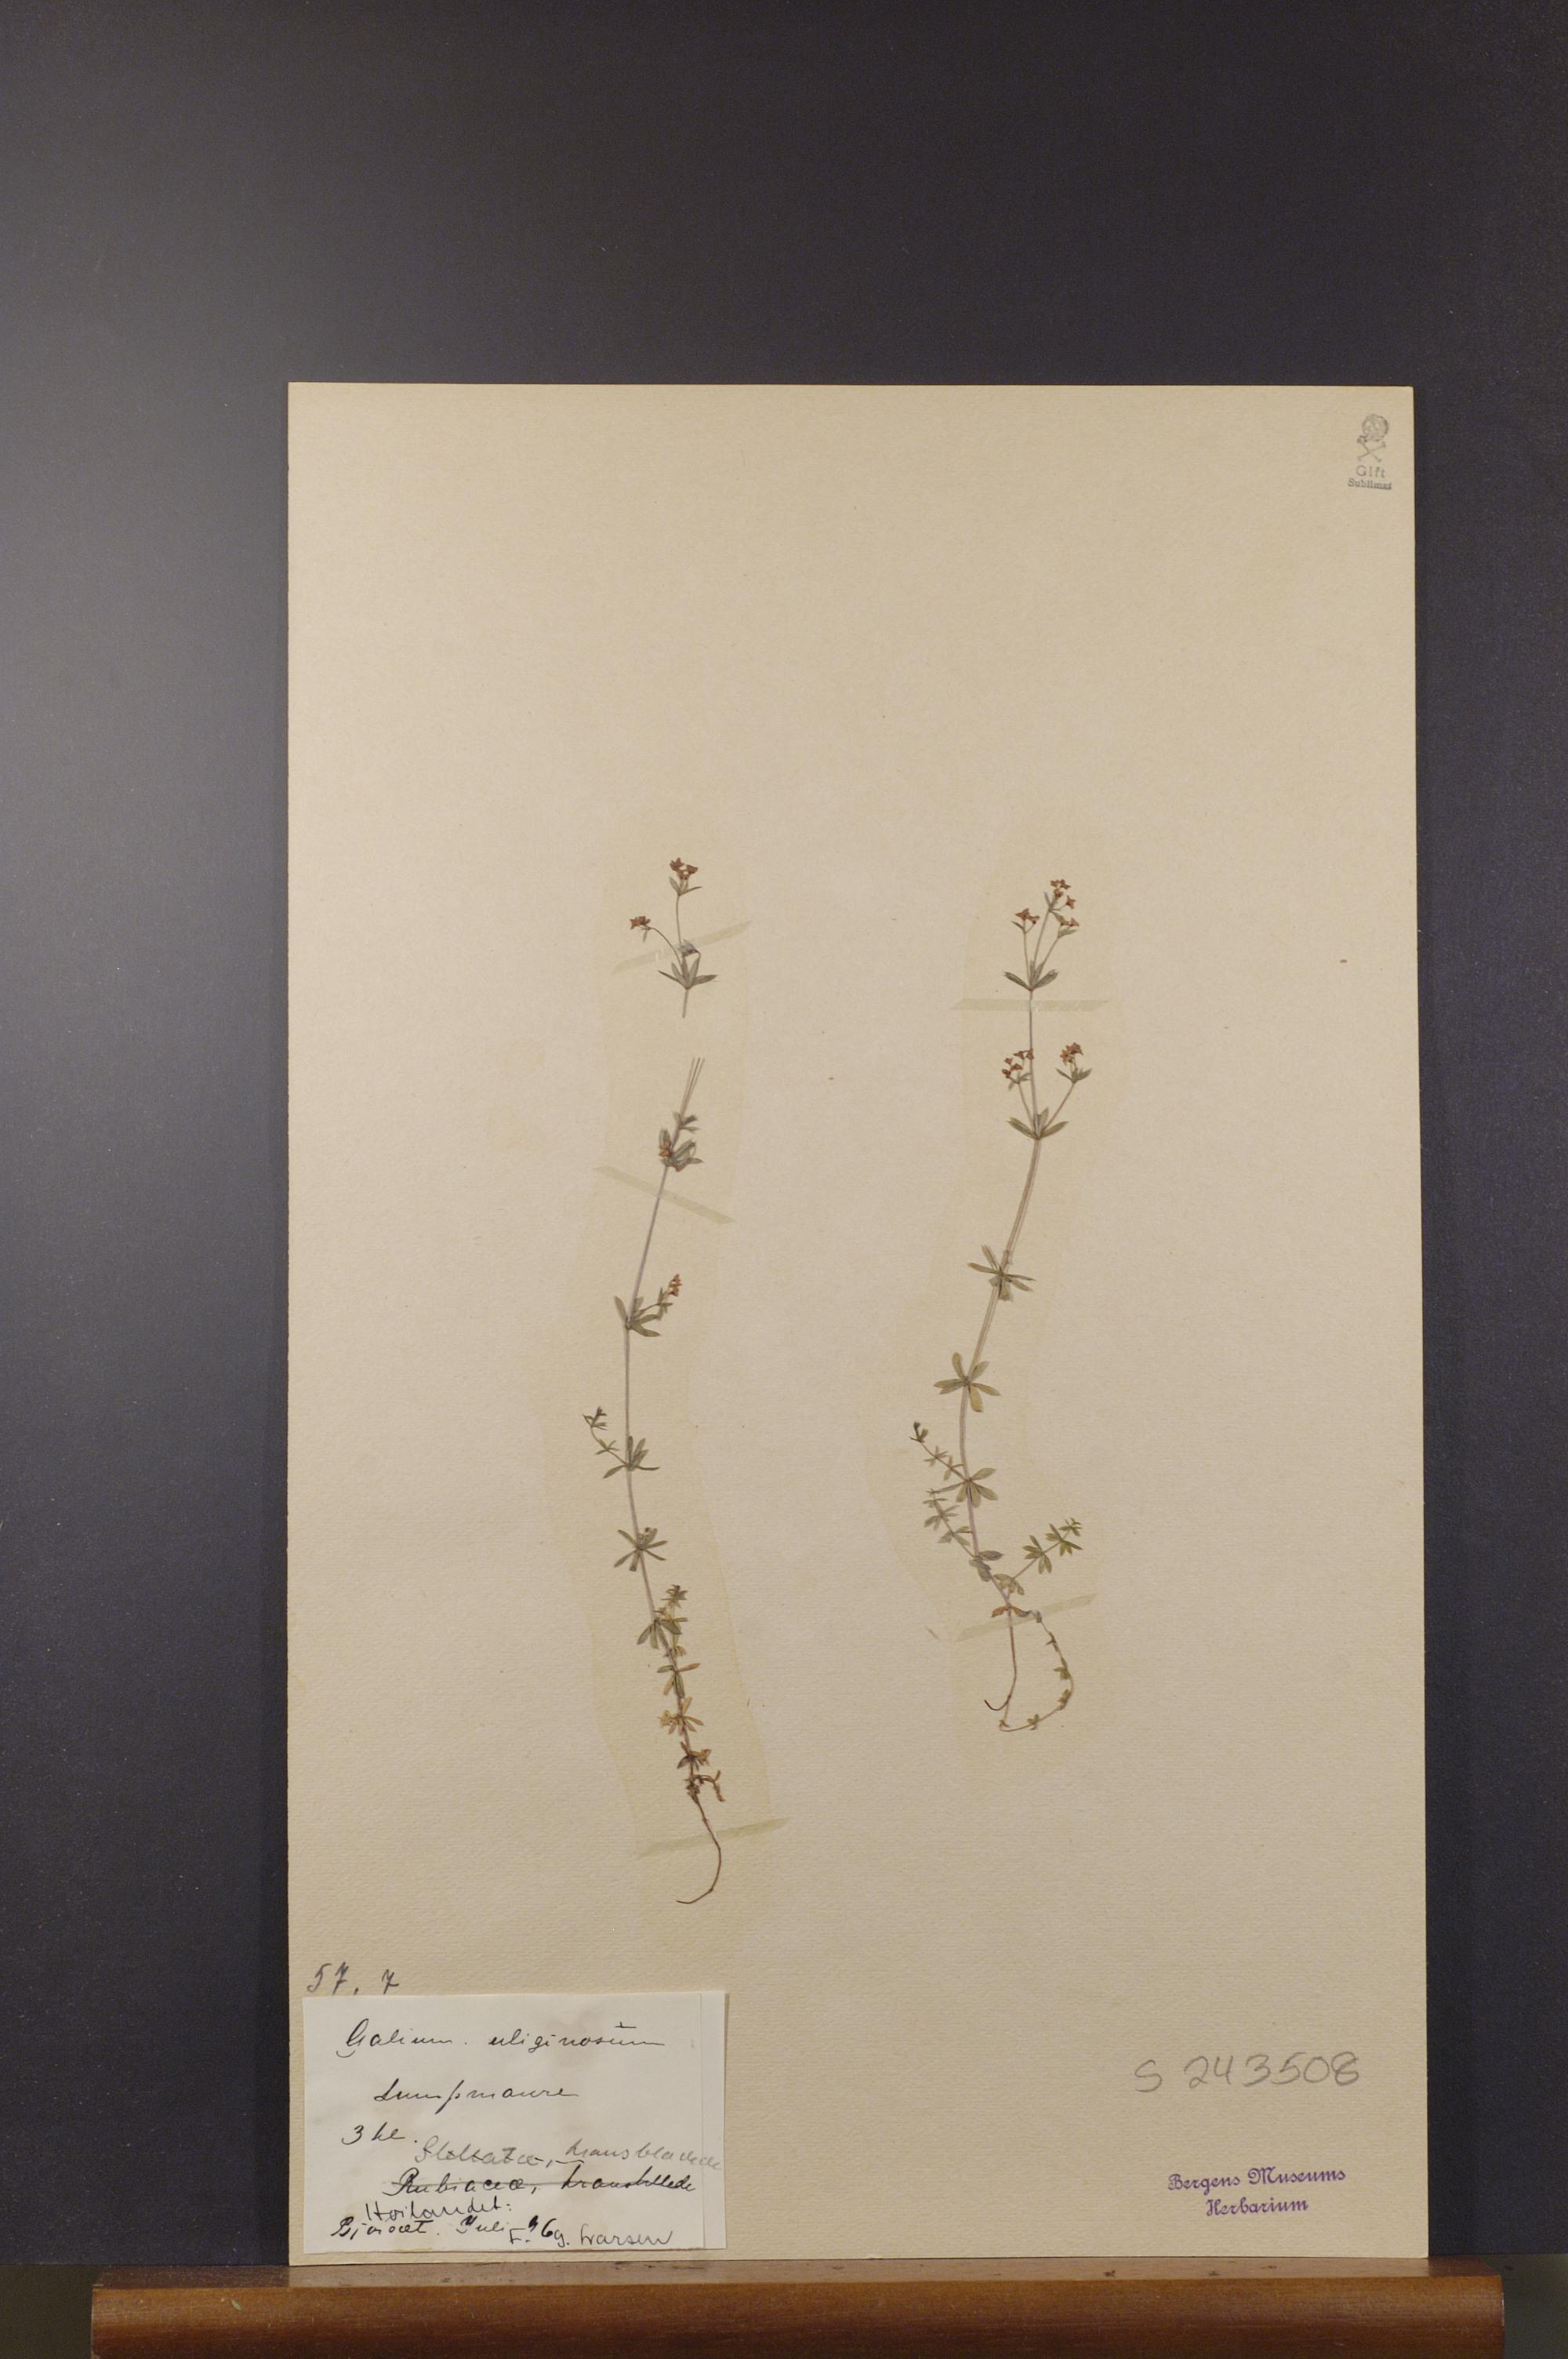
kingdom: Plantae
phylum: Tracheophyta
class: Magnoliopsida
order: Gentianales
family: Rubiaceae
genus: Galium
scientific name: Galium uliginosum
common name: Fen bedstraw
